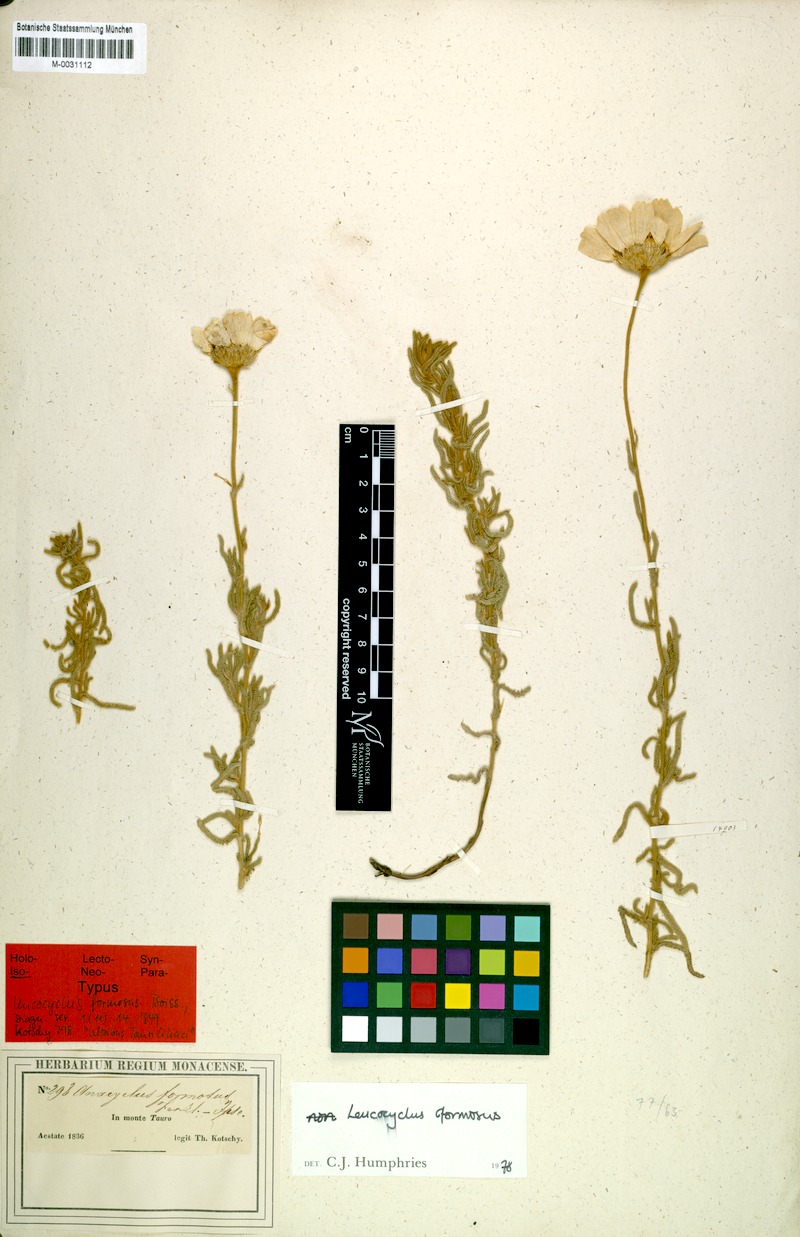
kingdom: Plantae
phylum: Tracheophyta
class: Magnoliopsida
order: Asterales
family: Asteraceae
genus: Achillea
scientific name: Achillea formosa
